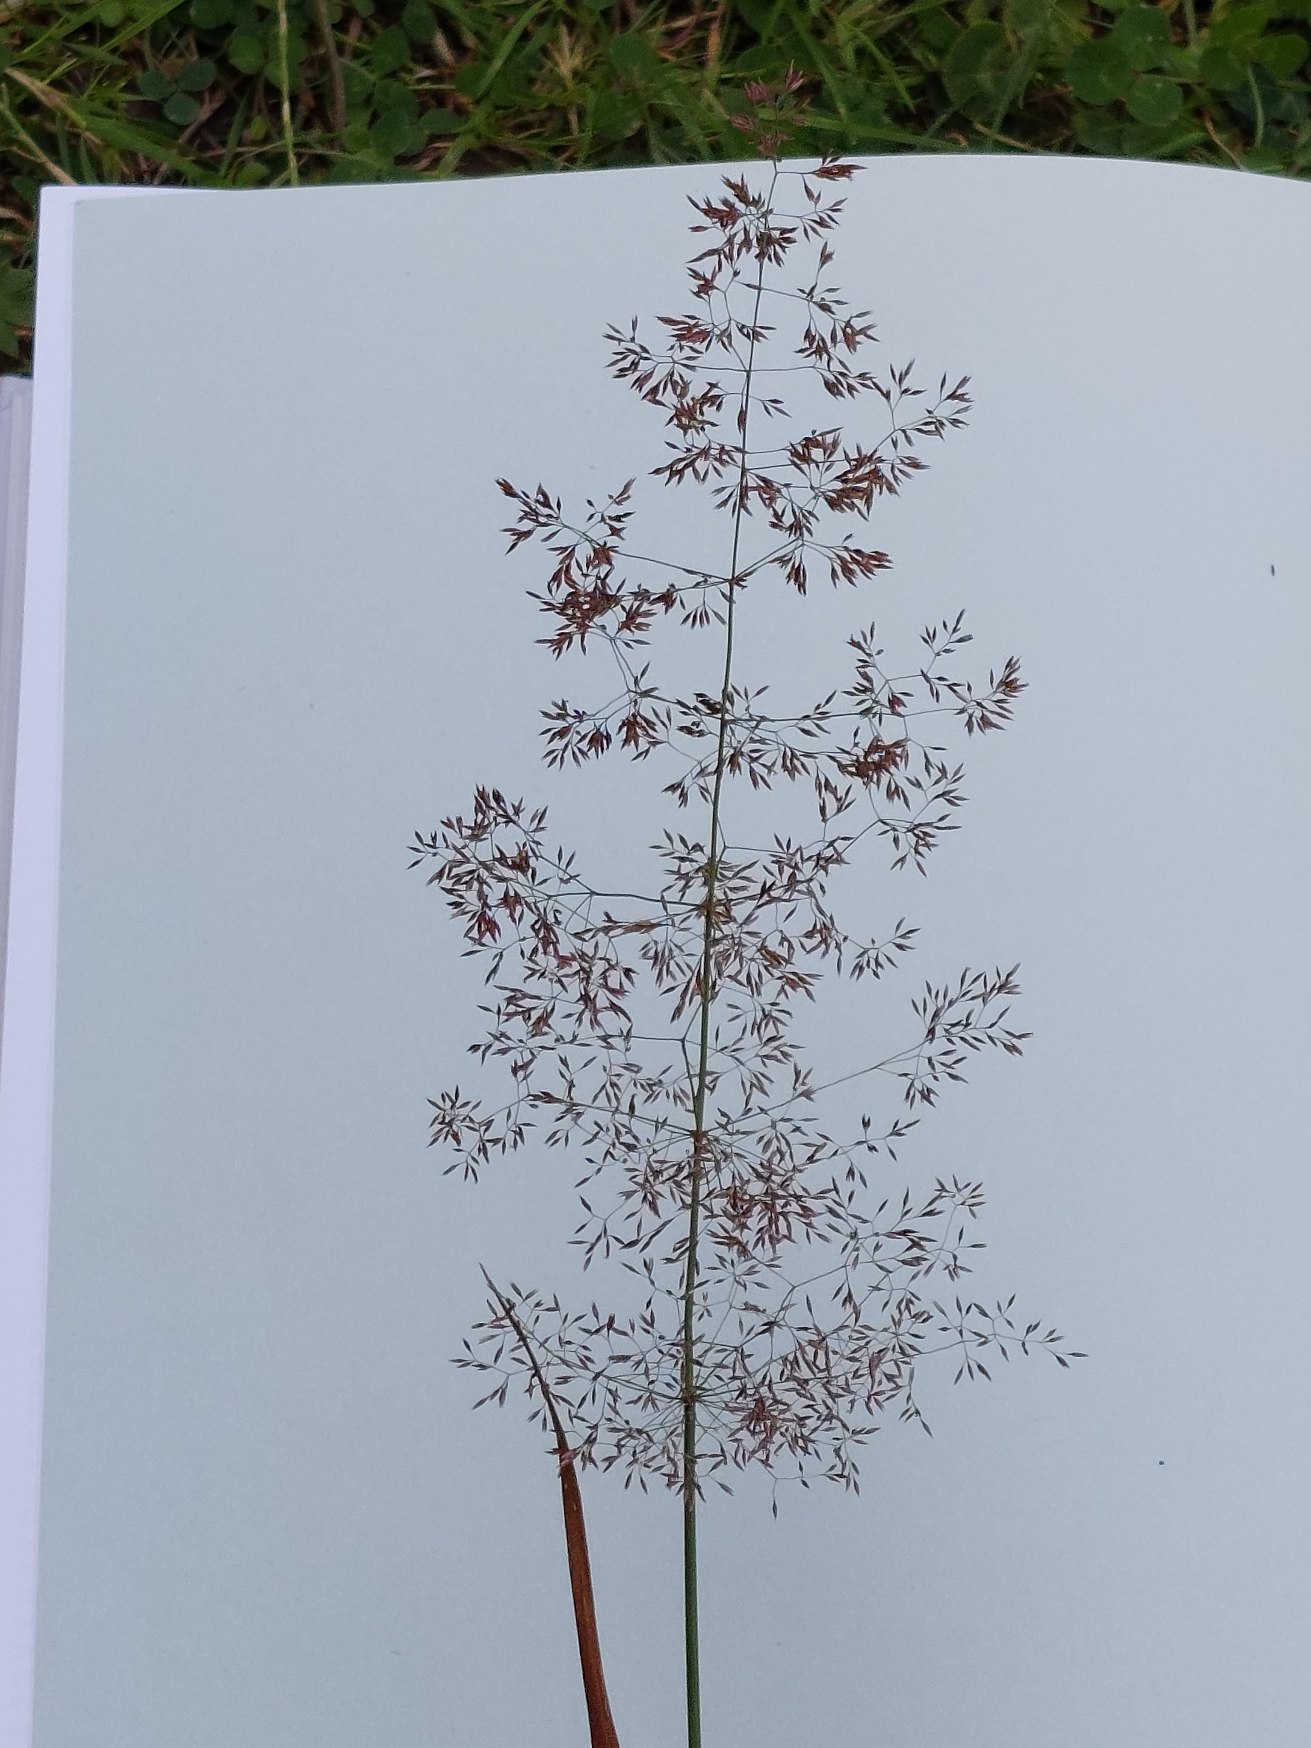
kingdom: Plantae
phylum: Tracheophyta
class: Liliopsida
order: Poales
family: Poaceae
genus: Agrostis
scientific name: Agrostis capillaris
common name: Almindelig hvene
